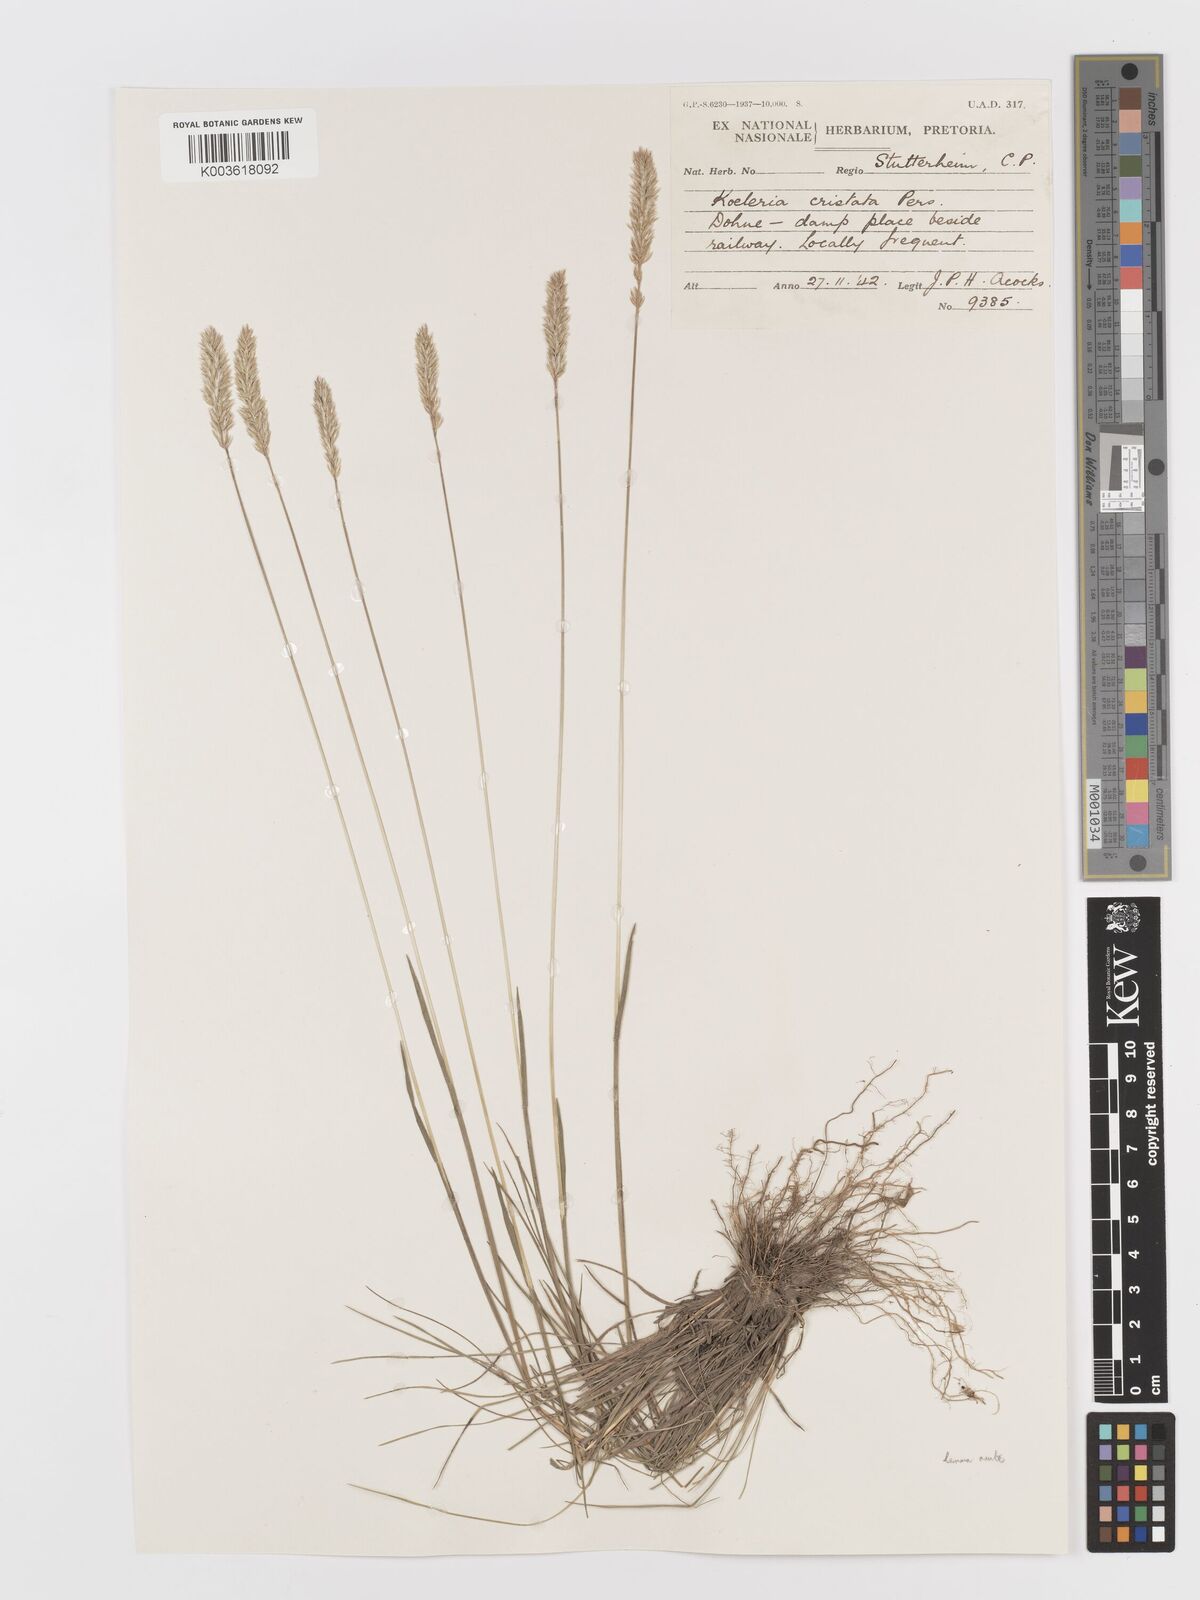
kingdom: Plantae
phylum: Tracheophyta
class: Liliopsida
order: Poales
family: Poaceae
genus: Koeleria
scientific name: Koeleria capensis
